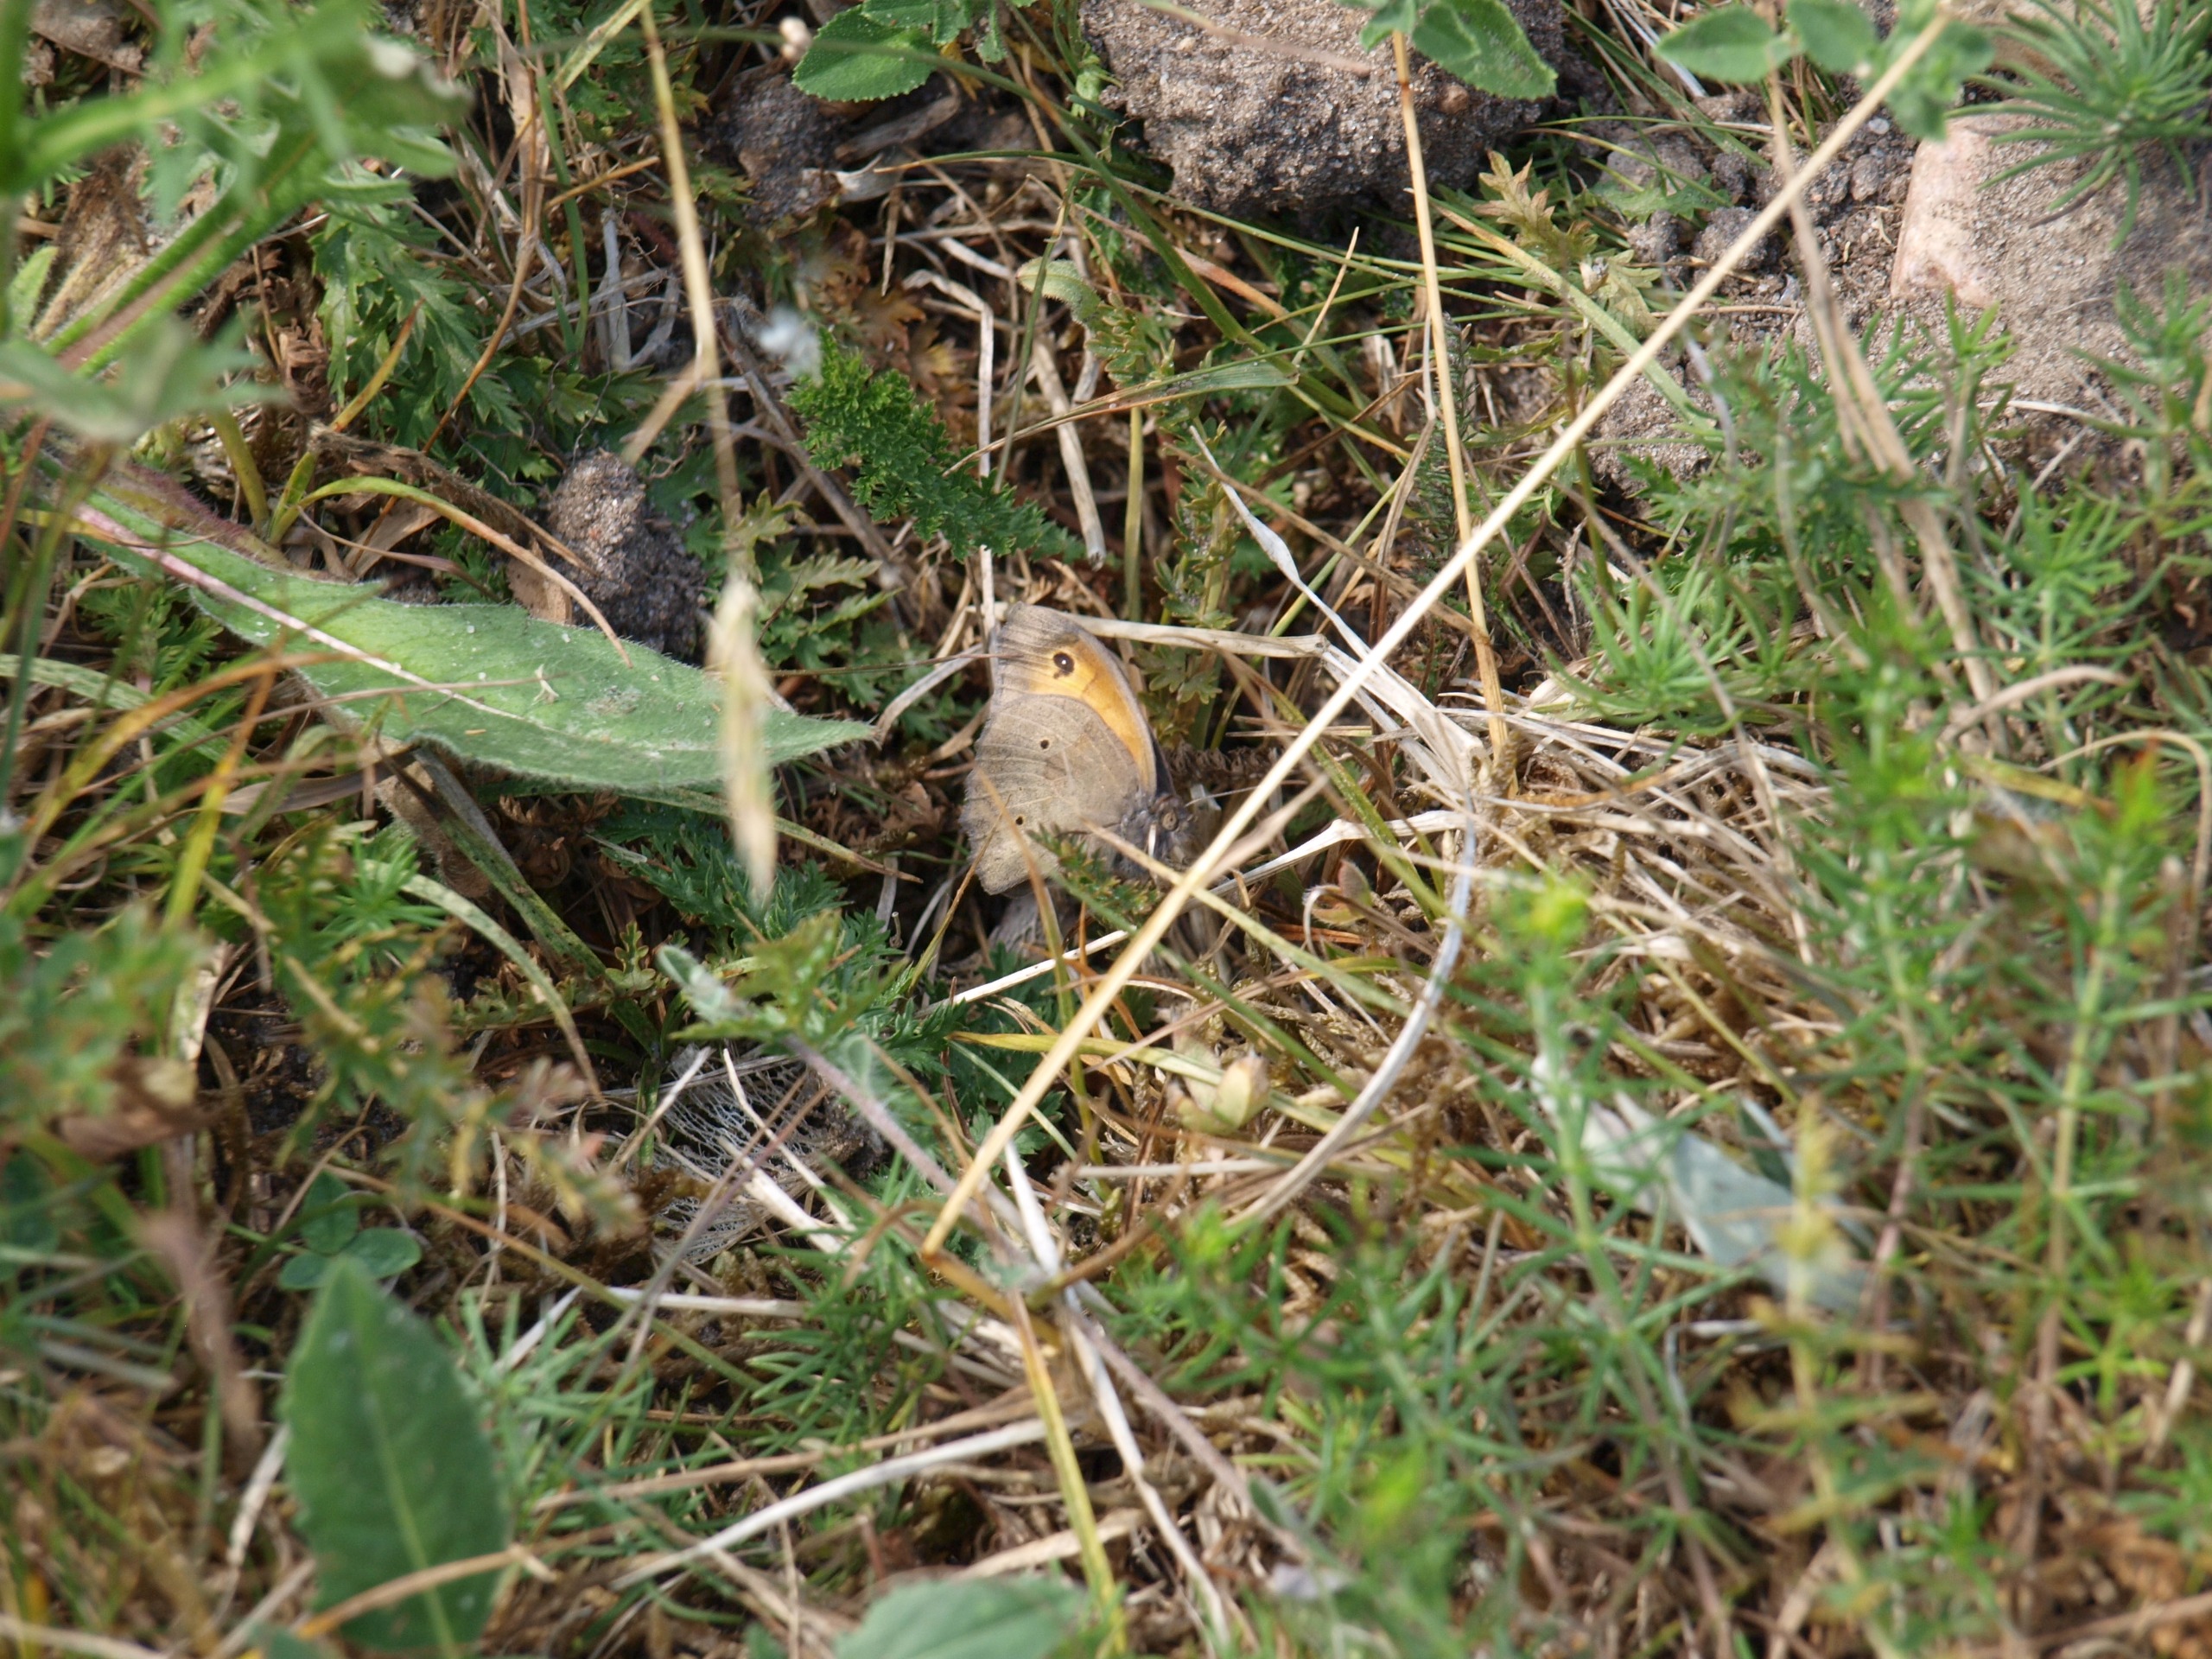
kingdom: Animalia
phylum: Arthropoda
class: Insecta
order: Lepidoptera
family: Nymphalidae
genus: Maniola
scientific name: Maniola jurtina
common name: Græsrandøje
